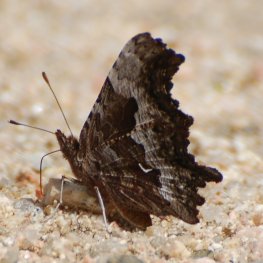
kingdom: Animalia
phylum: Arthropoda
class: Insecta
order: Lepidoptera
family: Nymphalidae
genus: Polygonia
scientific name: Polygonia gracilis
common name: Hoary Comma
